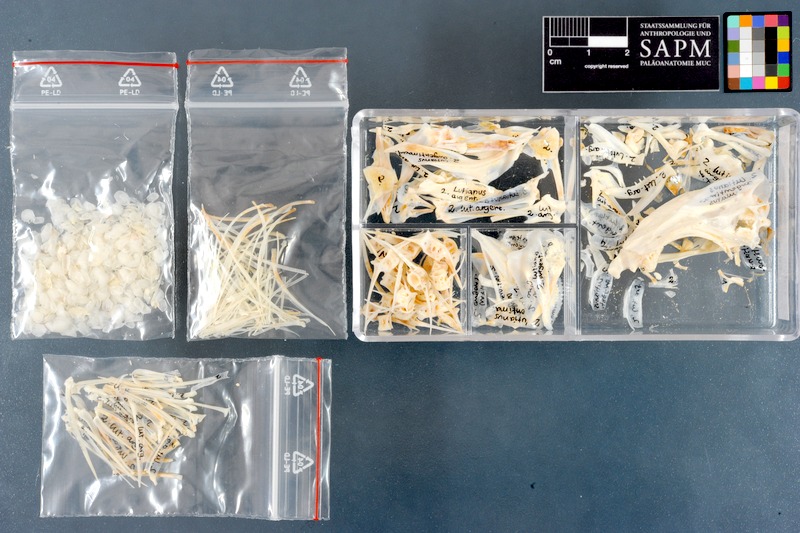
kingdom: Animalia
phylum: Chordata
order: Perciformes
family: Lutjanidae
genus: Lutjanus
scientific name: Lutjanus argentimaculatus
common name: Mangrove red snapper
